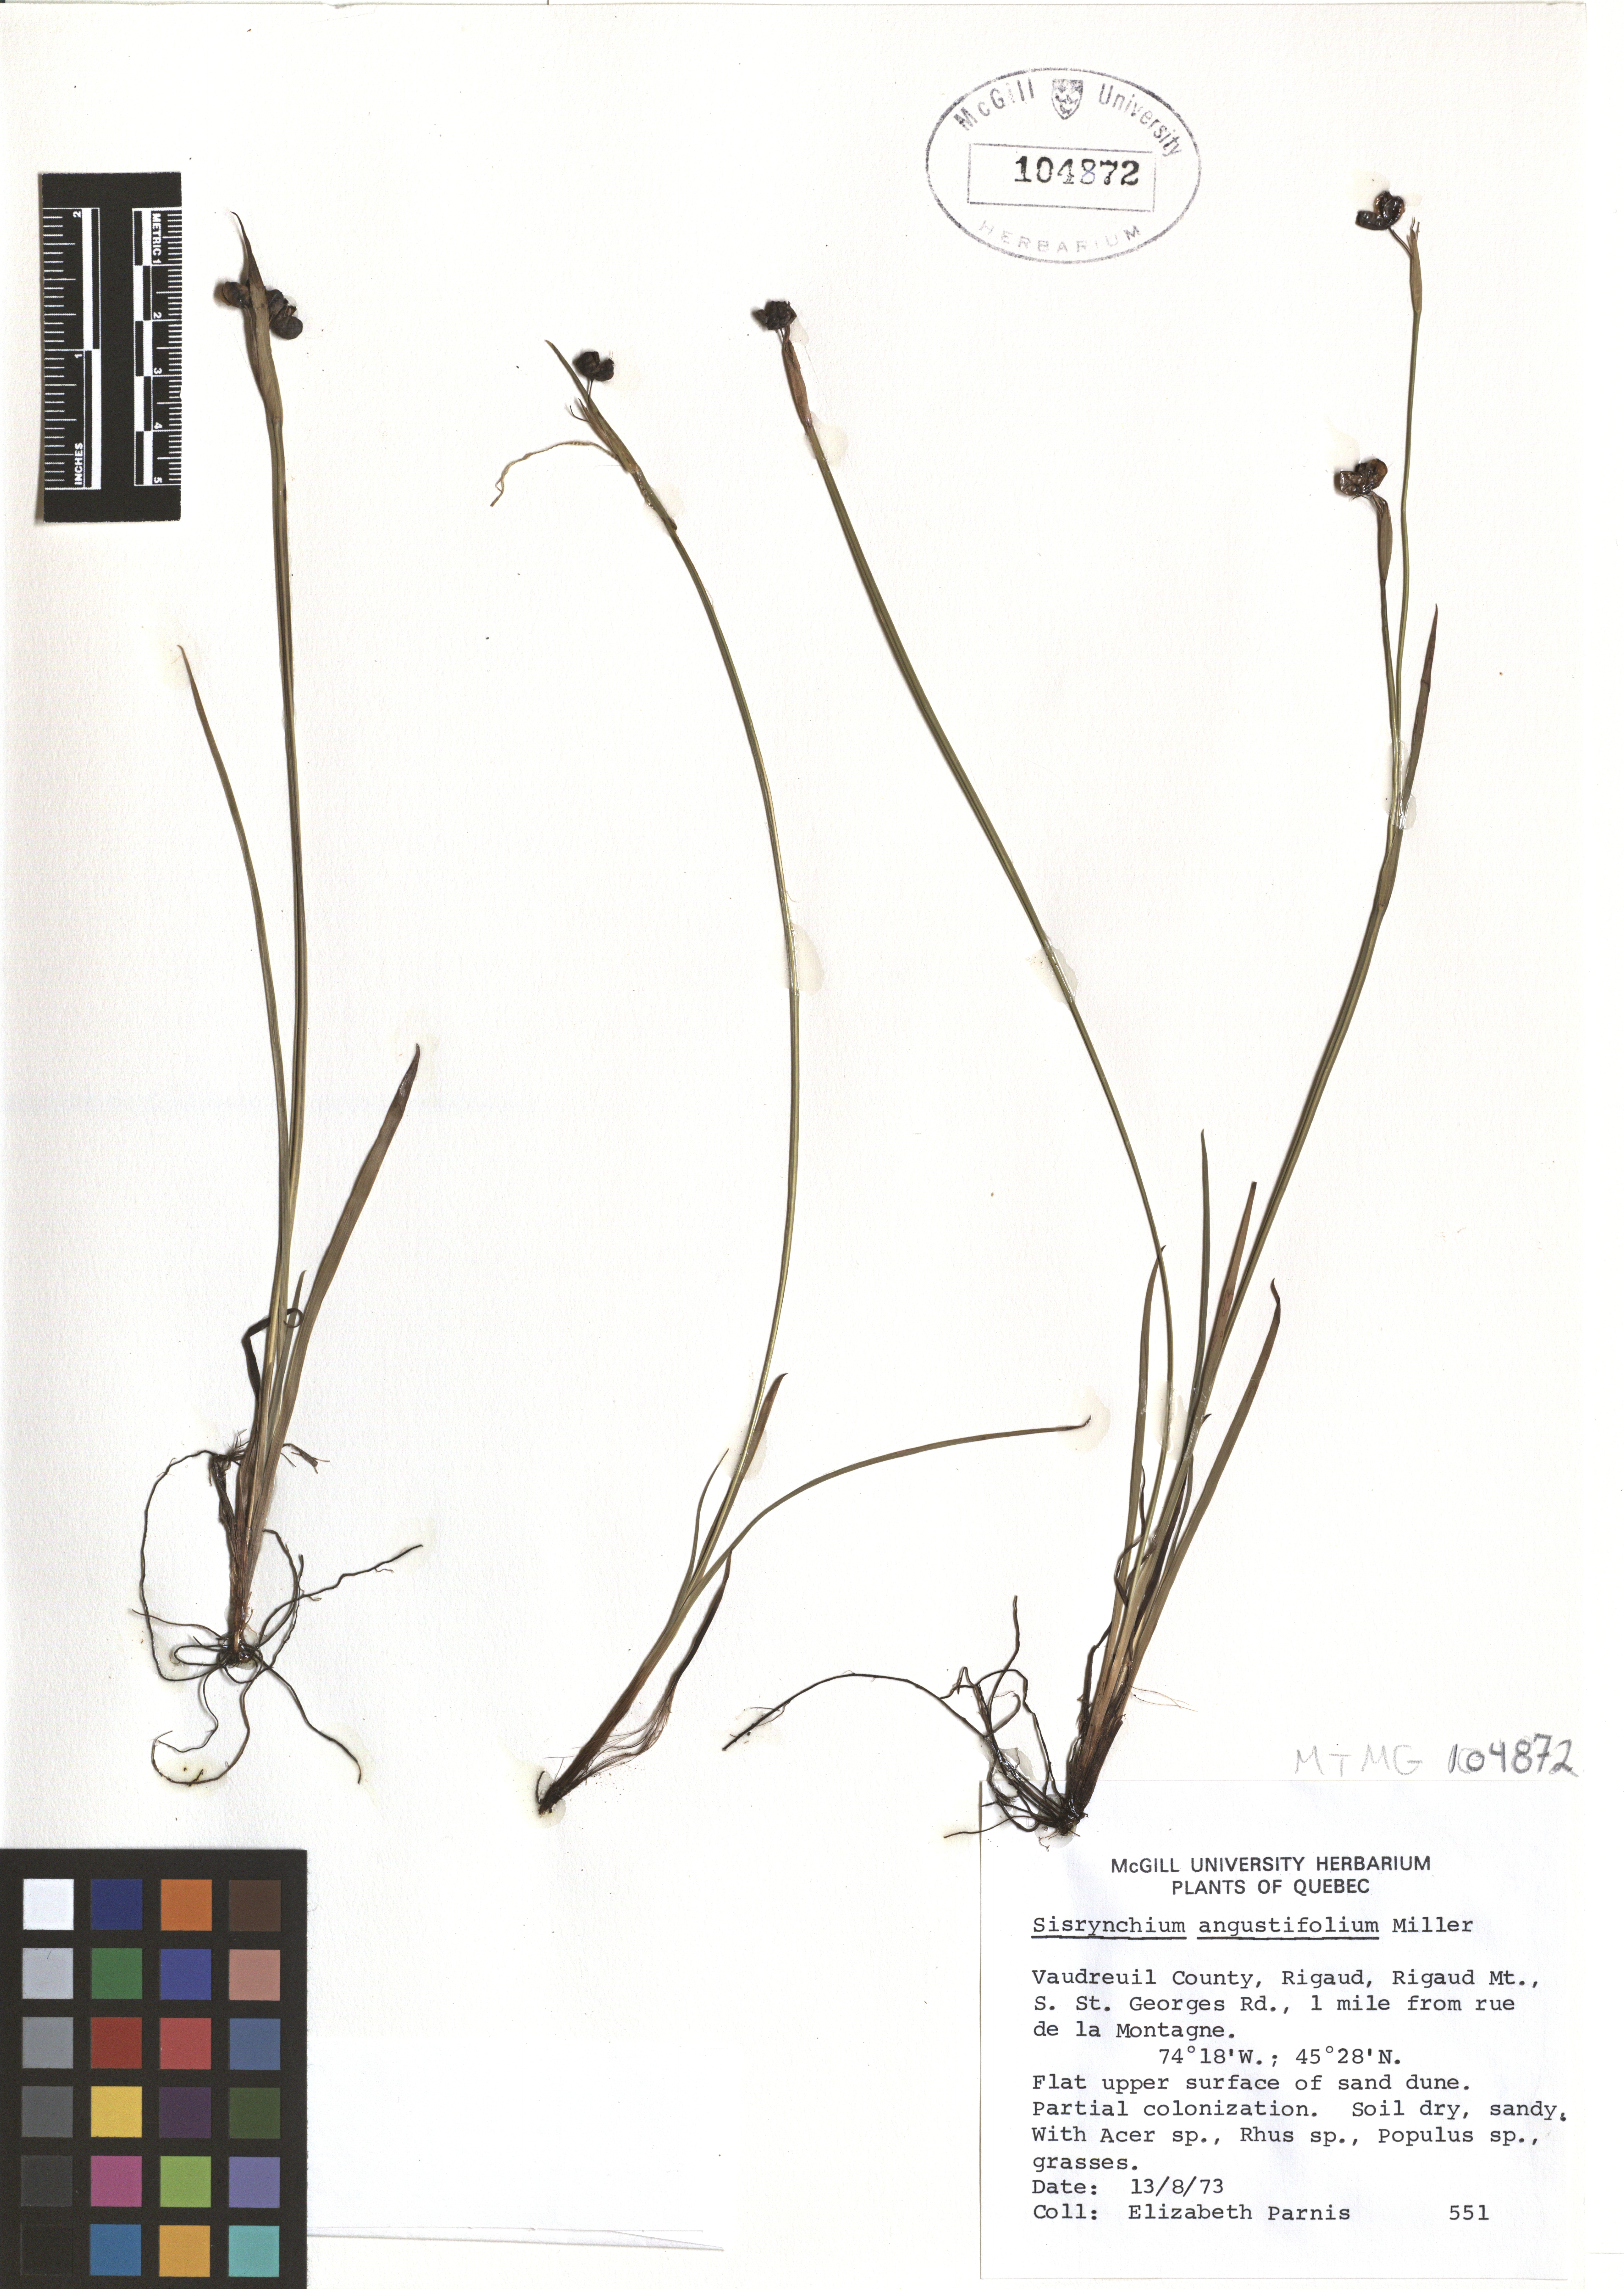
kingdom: Plantae
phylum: Tracheophyta
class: Liliopsida
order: Asparagales
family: Iridaceae
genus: Sisyrinchium
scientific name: Sisyrinchium angustifolium
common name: Narrow-leaf blue-eyed-grass
